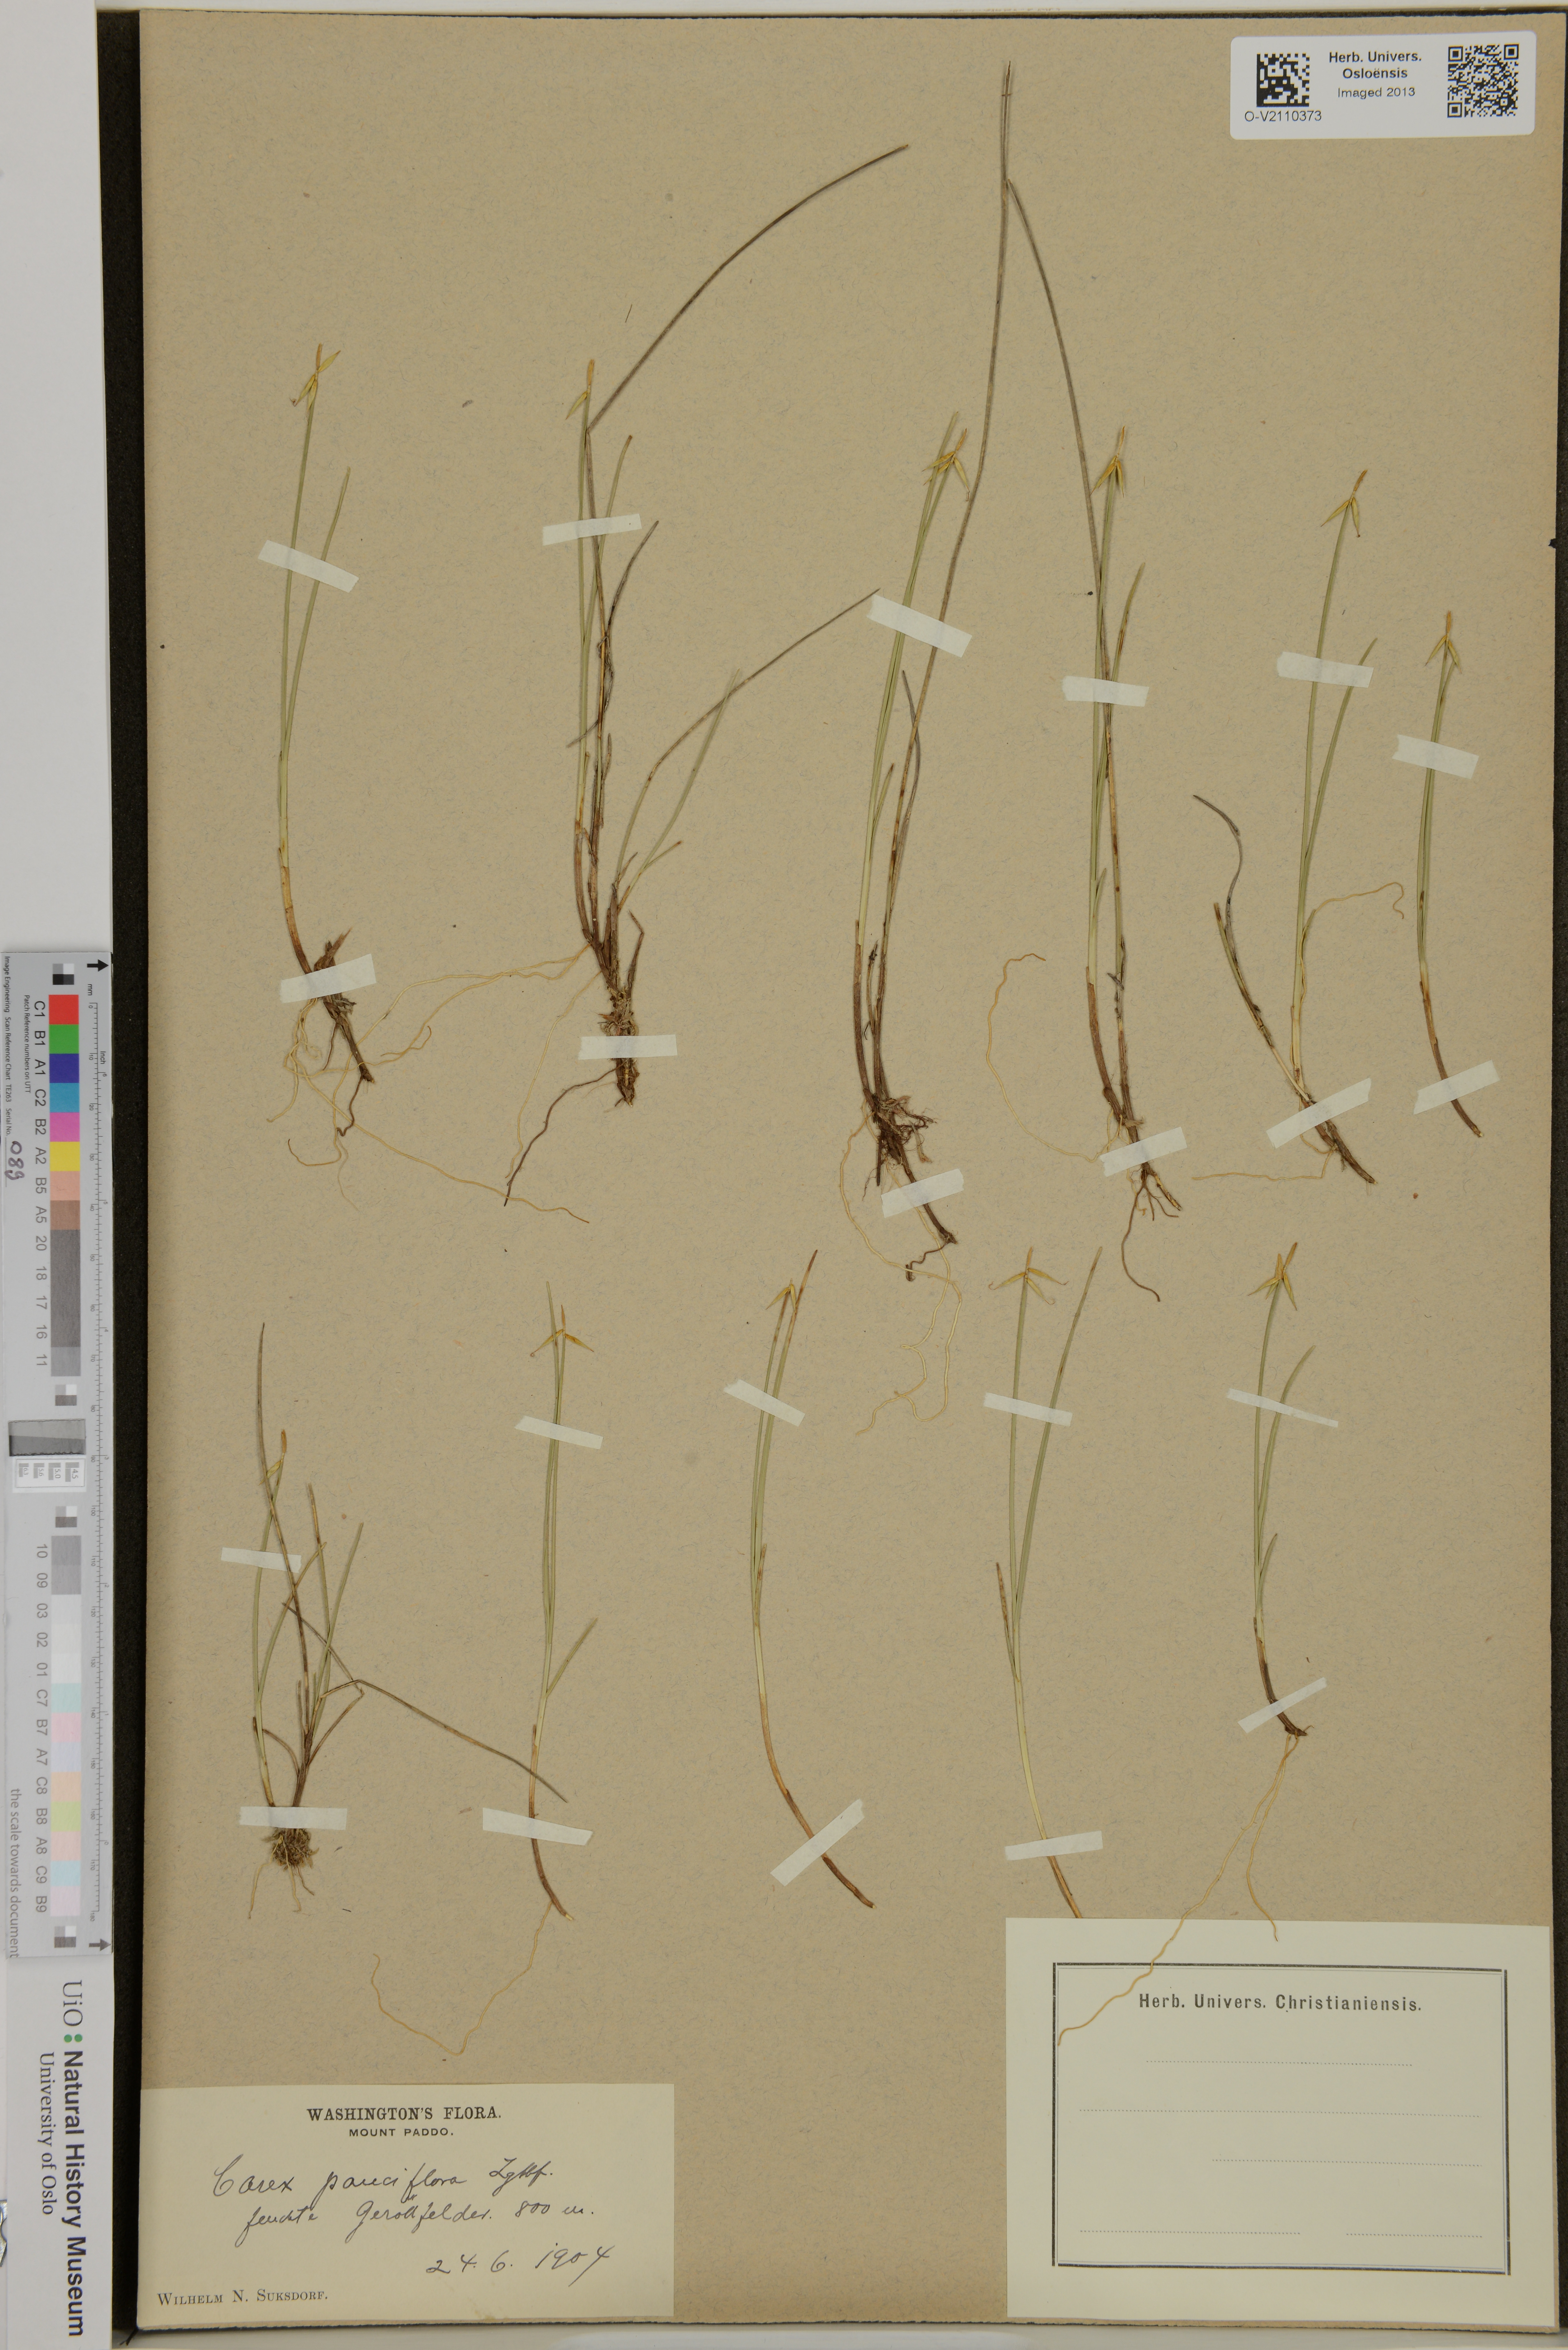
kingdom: Plantae
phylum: Tracheophyta
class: Liliopsida
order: Poales
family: Cyperaceae
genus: Carex
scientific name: Carex pauciflora
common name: Few-flowered sedge
